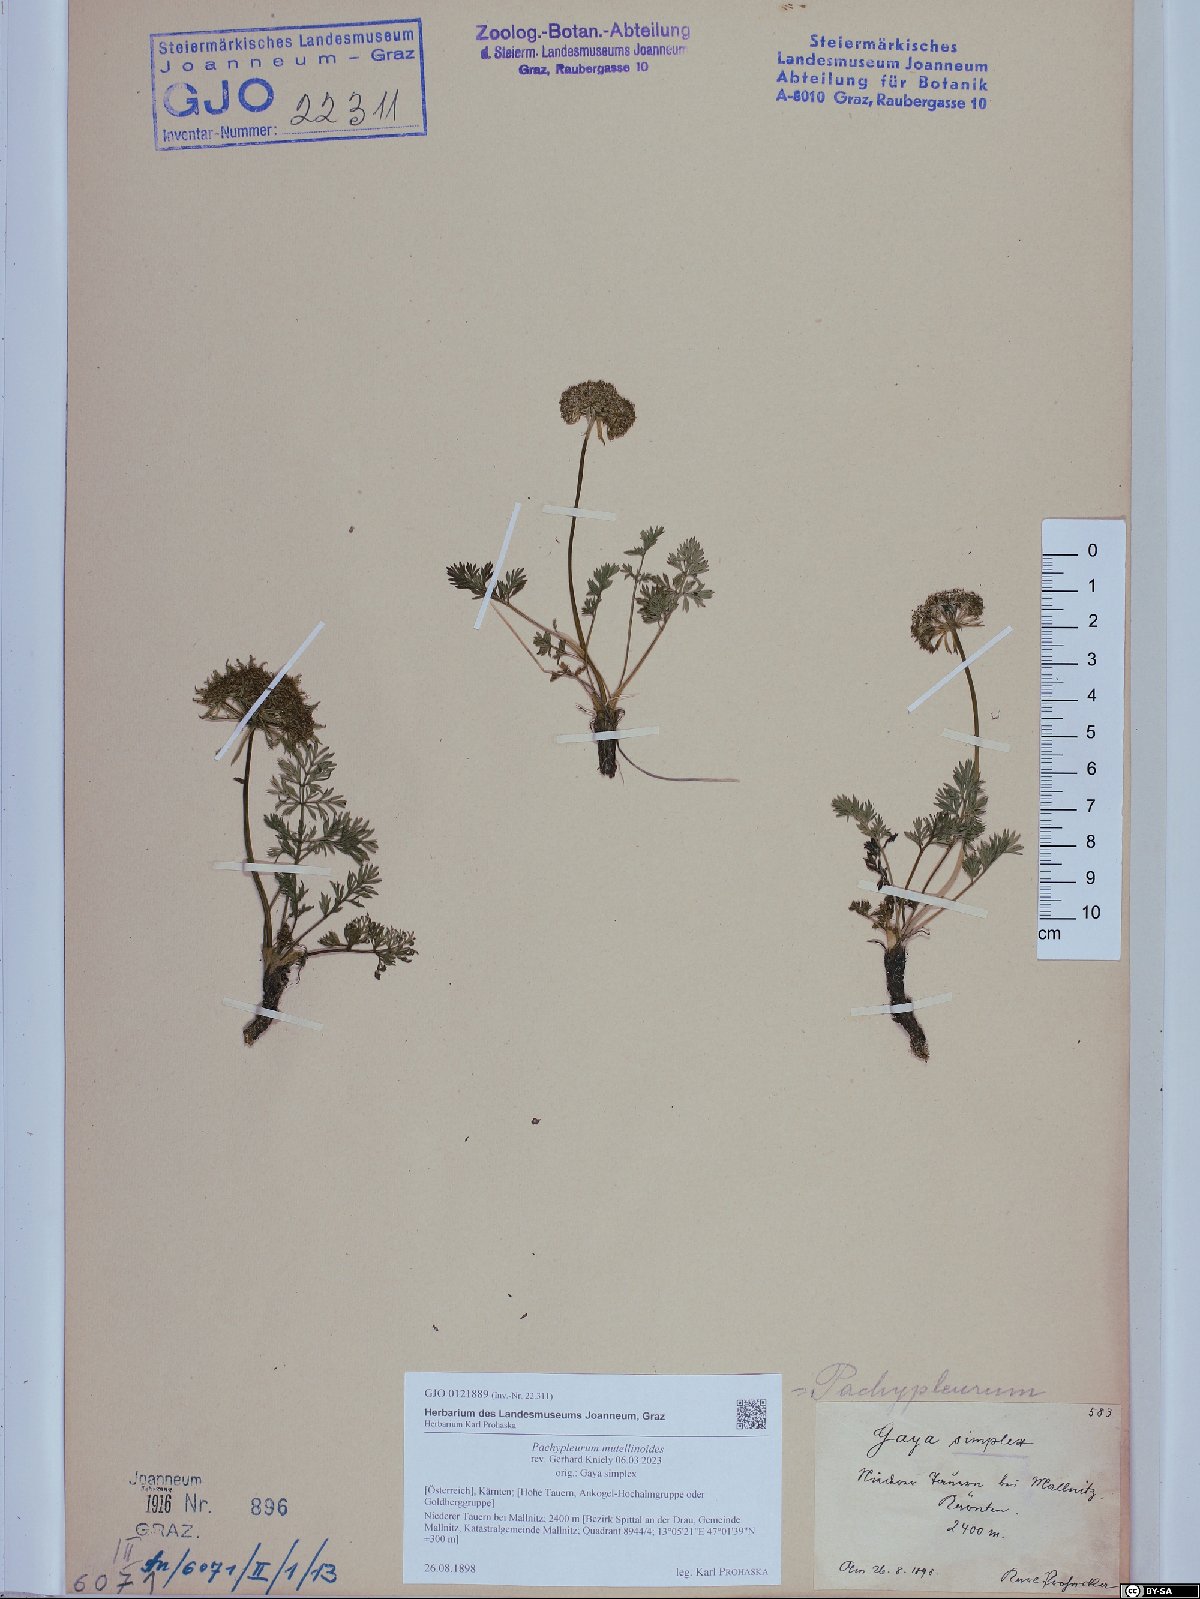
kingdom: Plantae
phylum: Tracheophyta
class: Magnoliopsida
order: Apiales
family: Apiaceae
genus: Pachypleurum
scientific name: Pachypleurum mutellinoides
